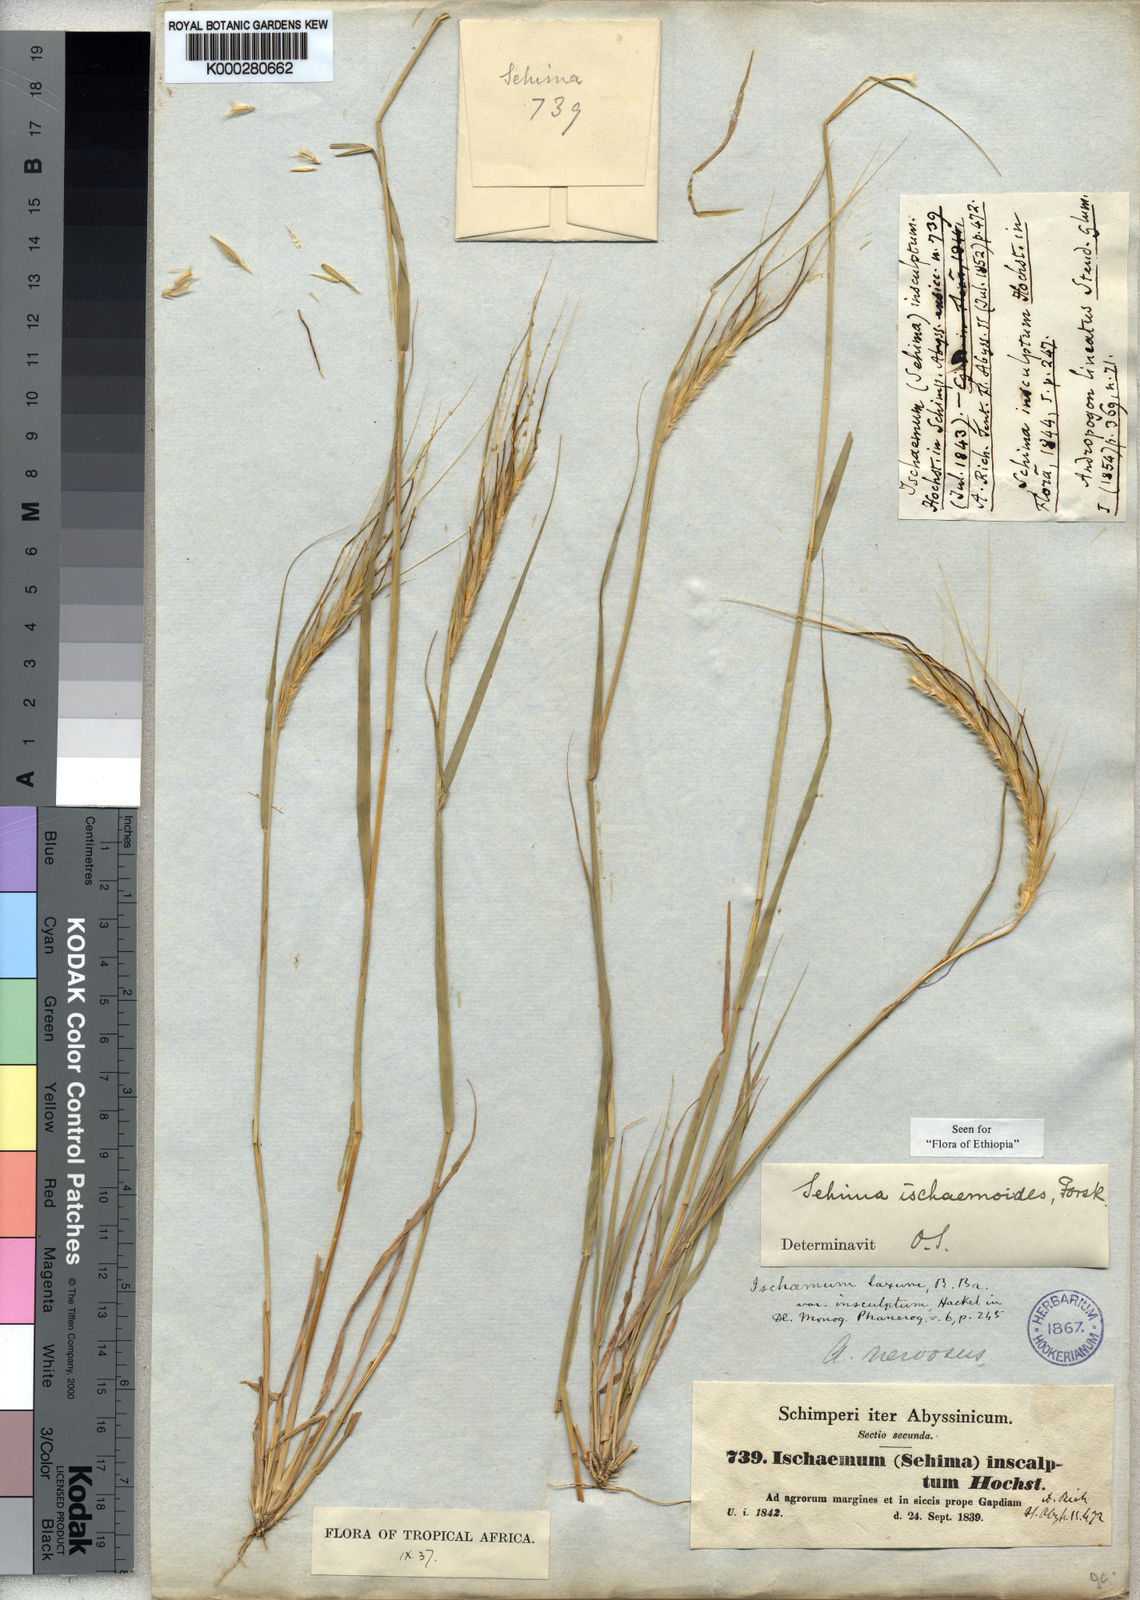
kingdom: Plantae
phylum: Tracheophyta
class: Liliopsida
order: Poales
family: Poaceae
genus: Sehima
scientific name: Sehima ischaemoides
